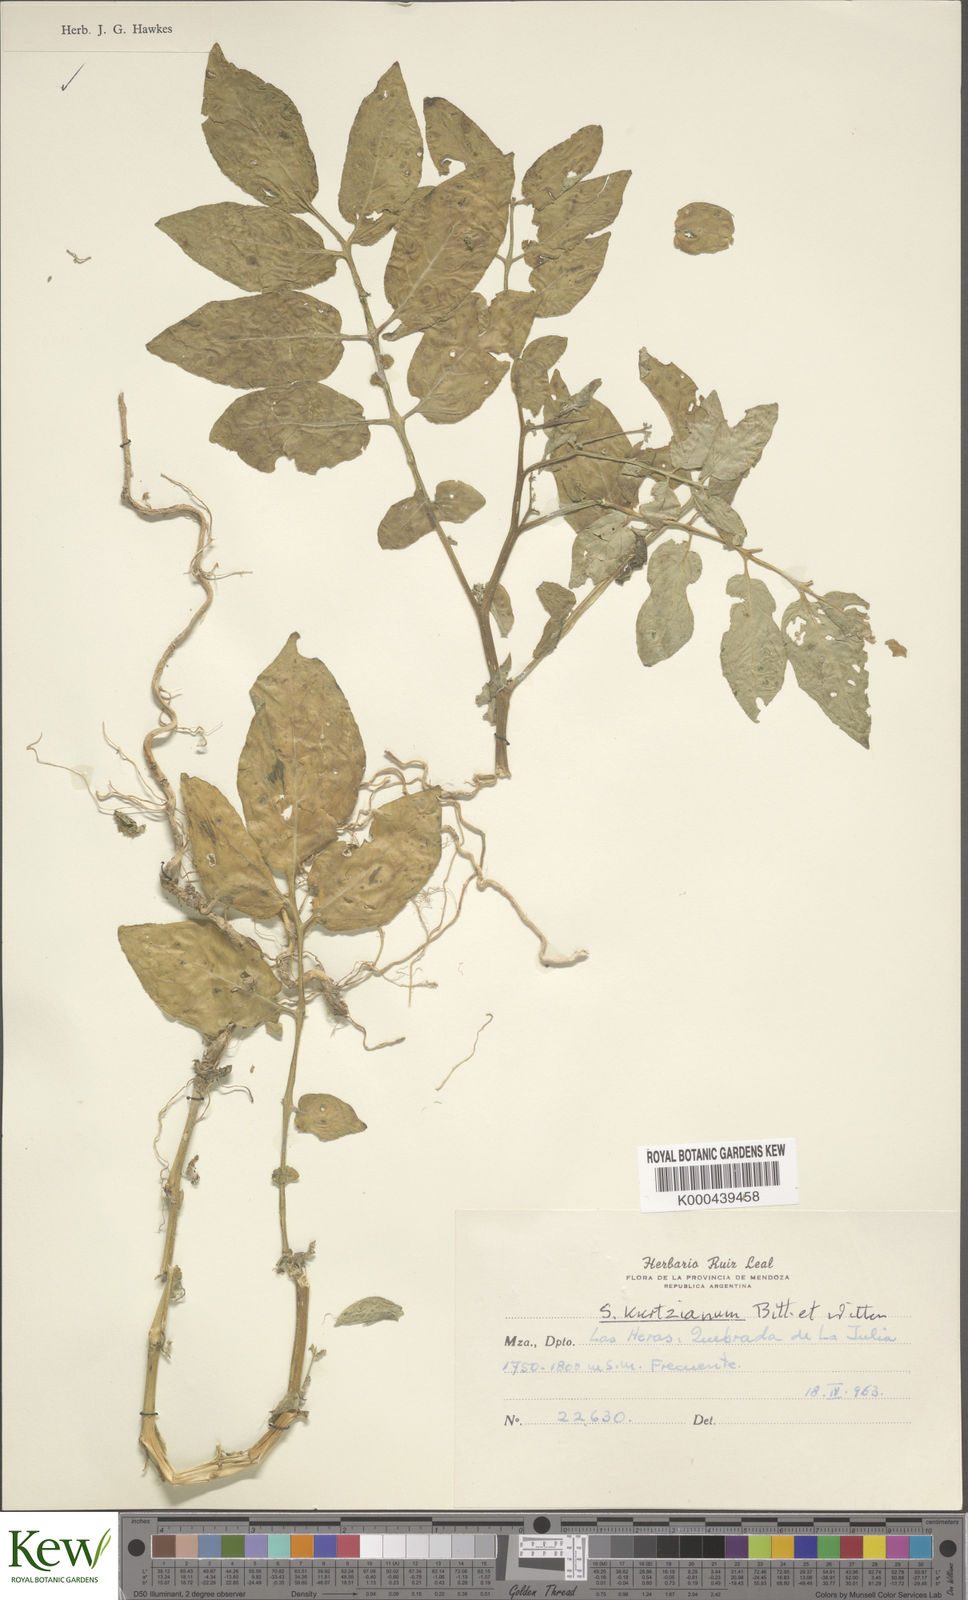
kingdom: Plantae
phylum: Tracheophyta
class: Magnoliopsida
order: Solanales
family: Solanaceae
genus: Solanum
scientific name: Solanum kurtzianum
